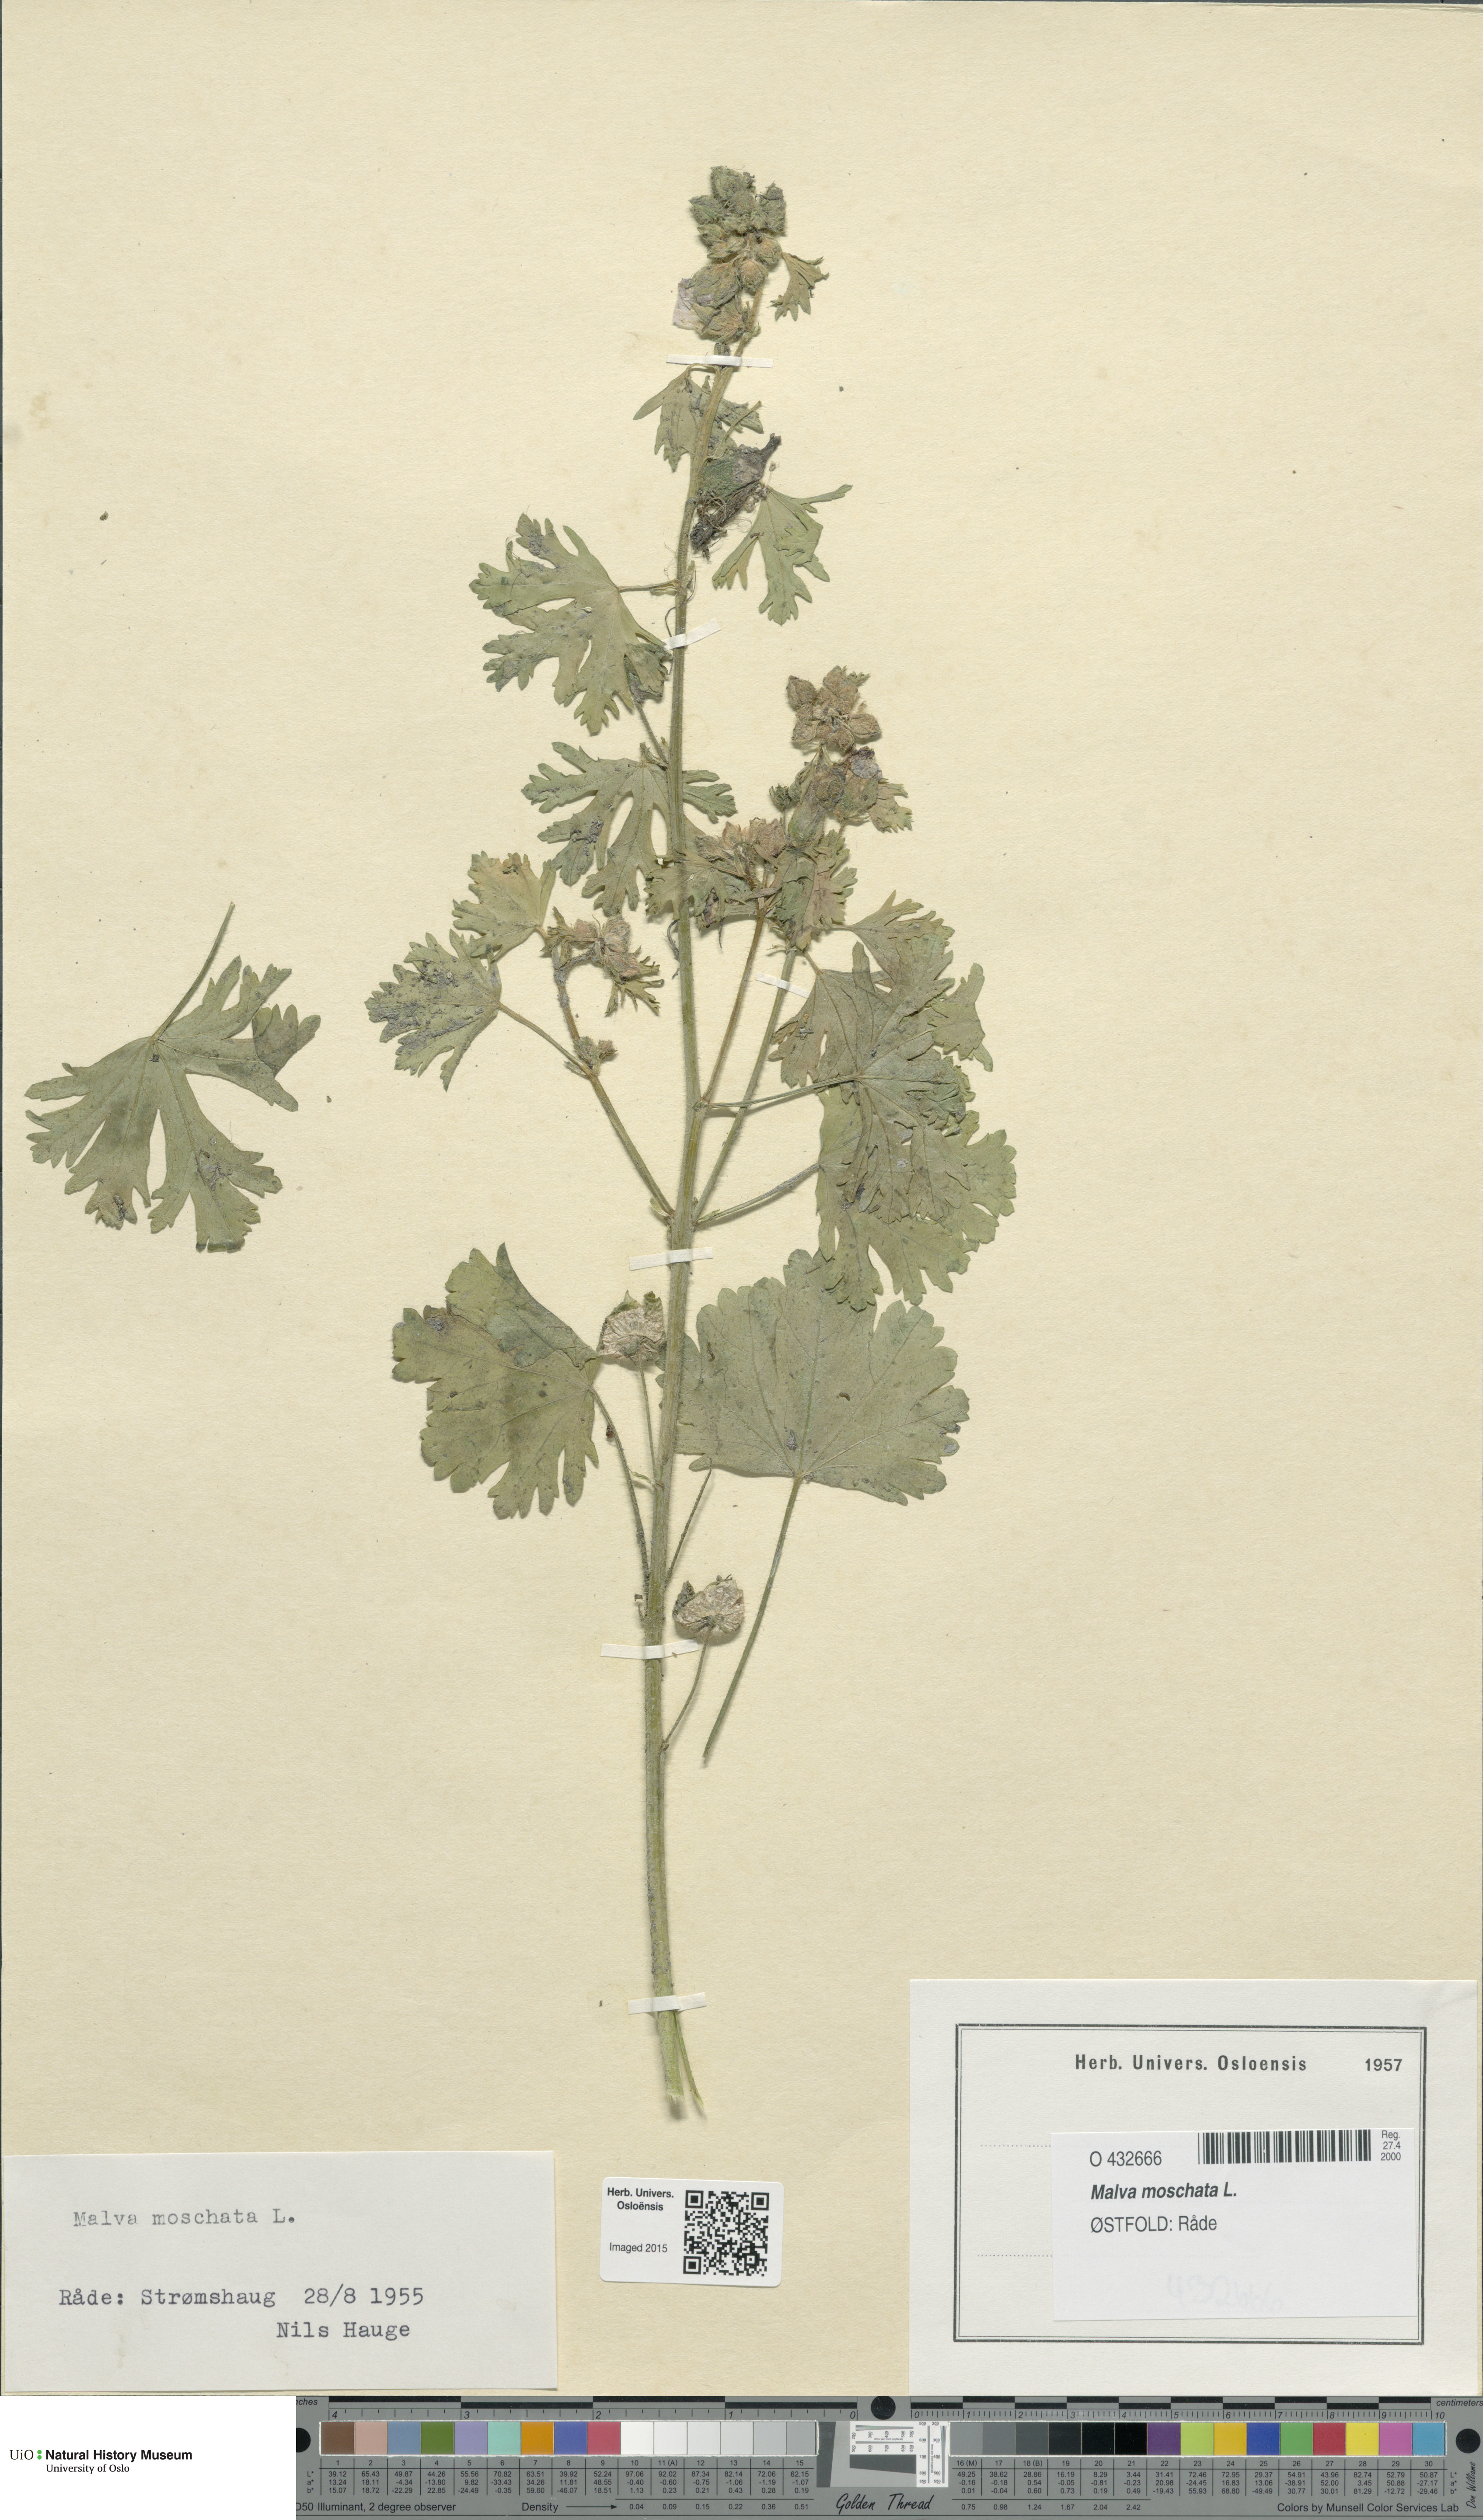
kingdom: Plantae
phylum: Tracheophyta
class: Magnoliopsida
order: Malvales
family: Malvaceae
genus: Malva
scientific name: Malva moschata
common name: Musk mallow
